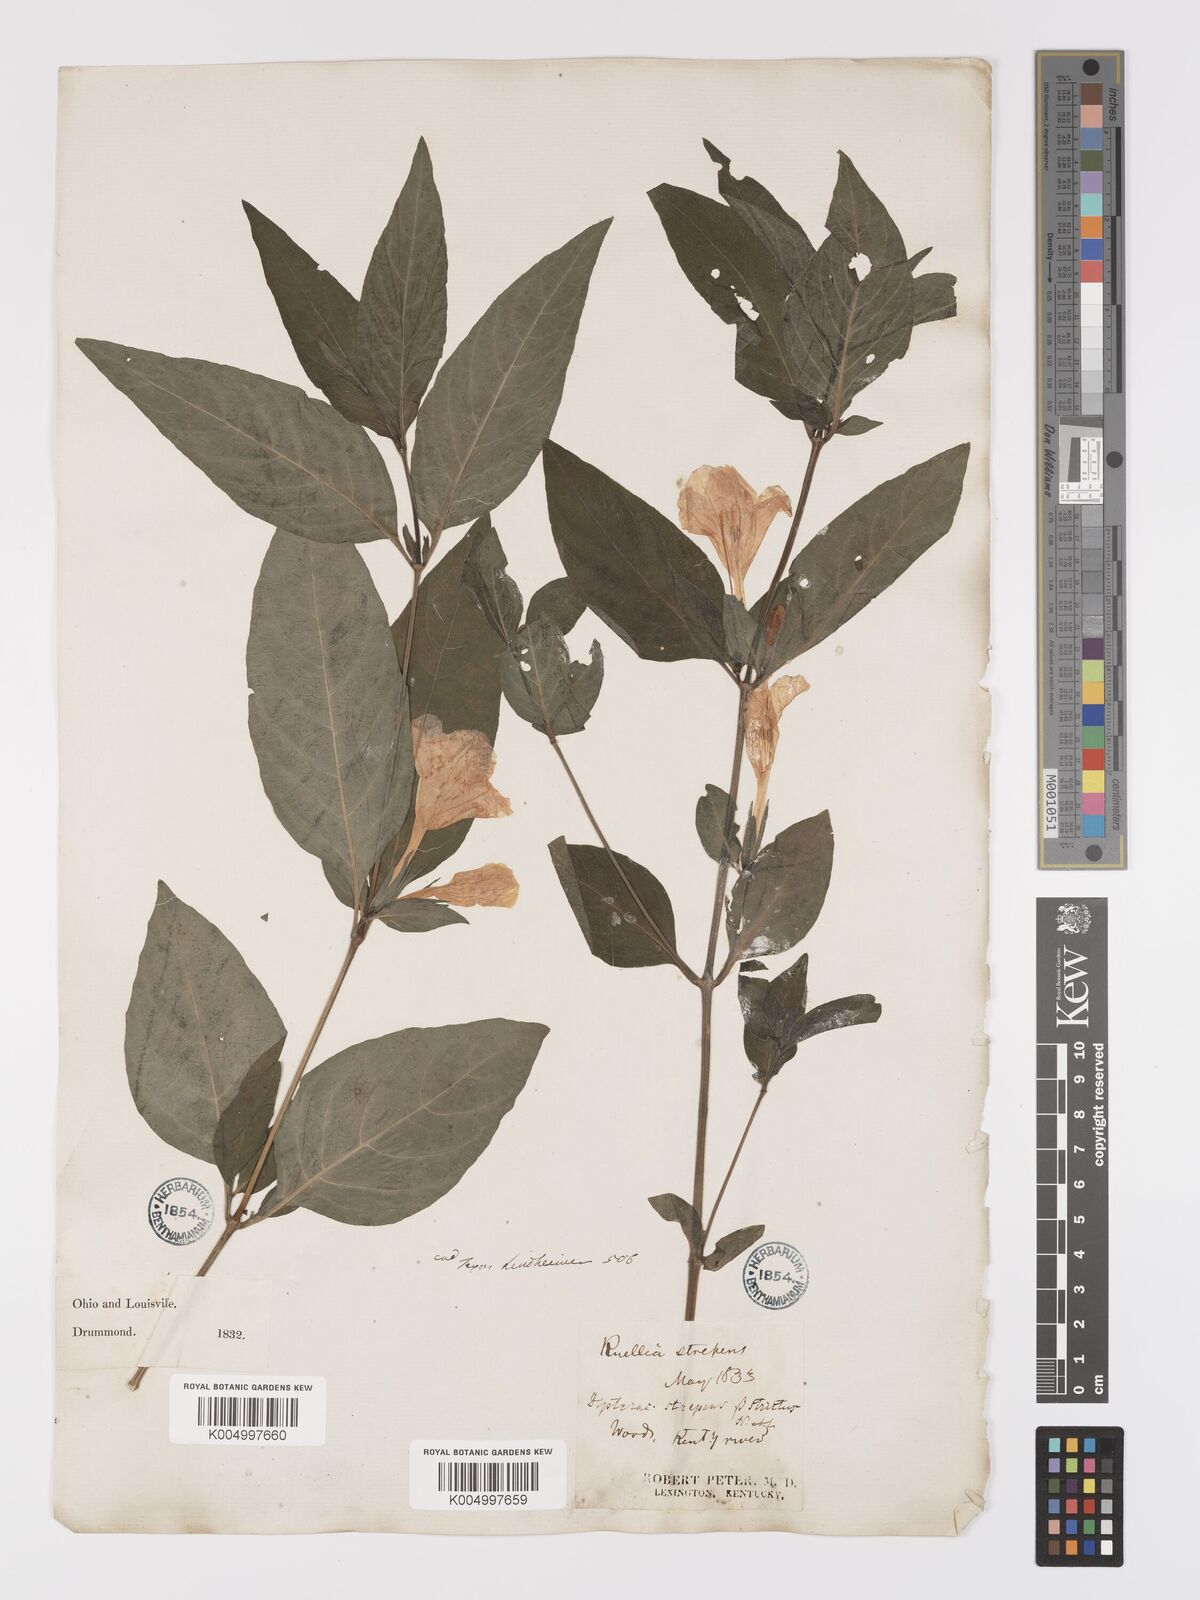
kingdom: Plantae
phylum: Tracheophyta
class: Magnoliopsida
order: Lamiales
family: Acanthaceae
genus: Ruellia
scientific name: Ruellia strepens
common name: Limestone wild petunia
